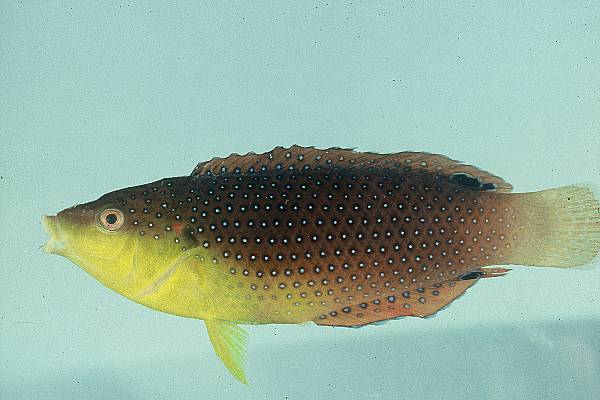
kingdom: Animalia
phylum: Chordata
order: Perciformes
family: Labridae
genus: Anampses
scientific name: Anampses twistii
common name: Yellowbreasted wrasse
